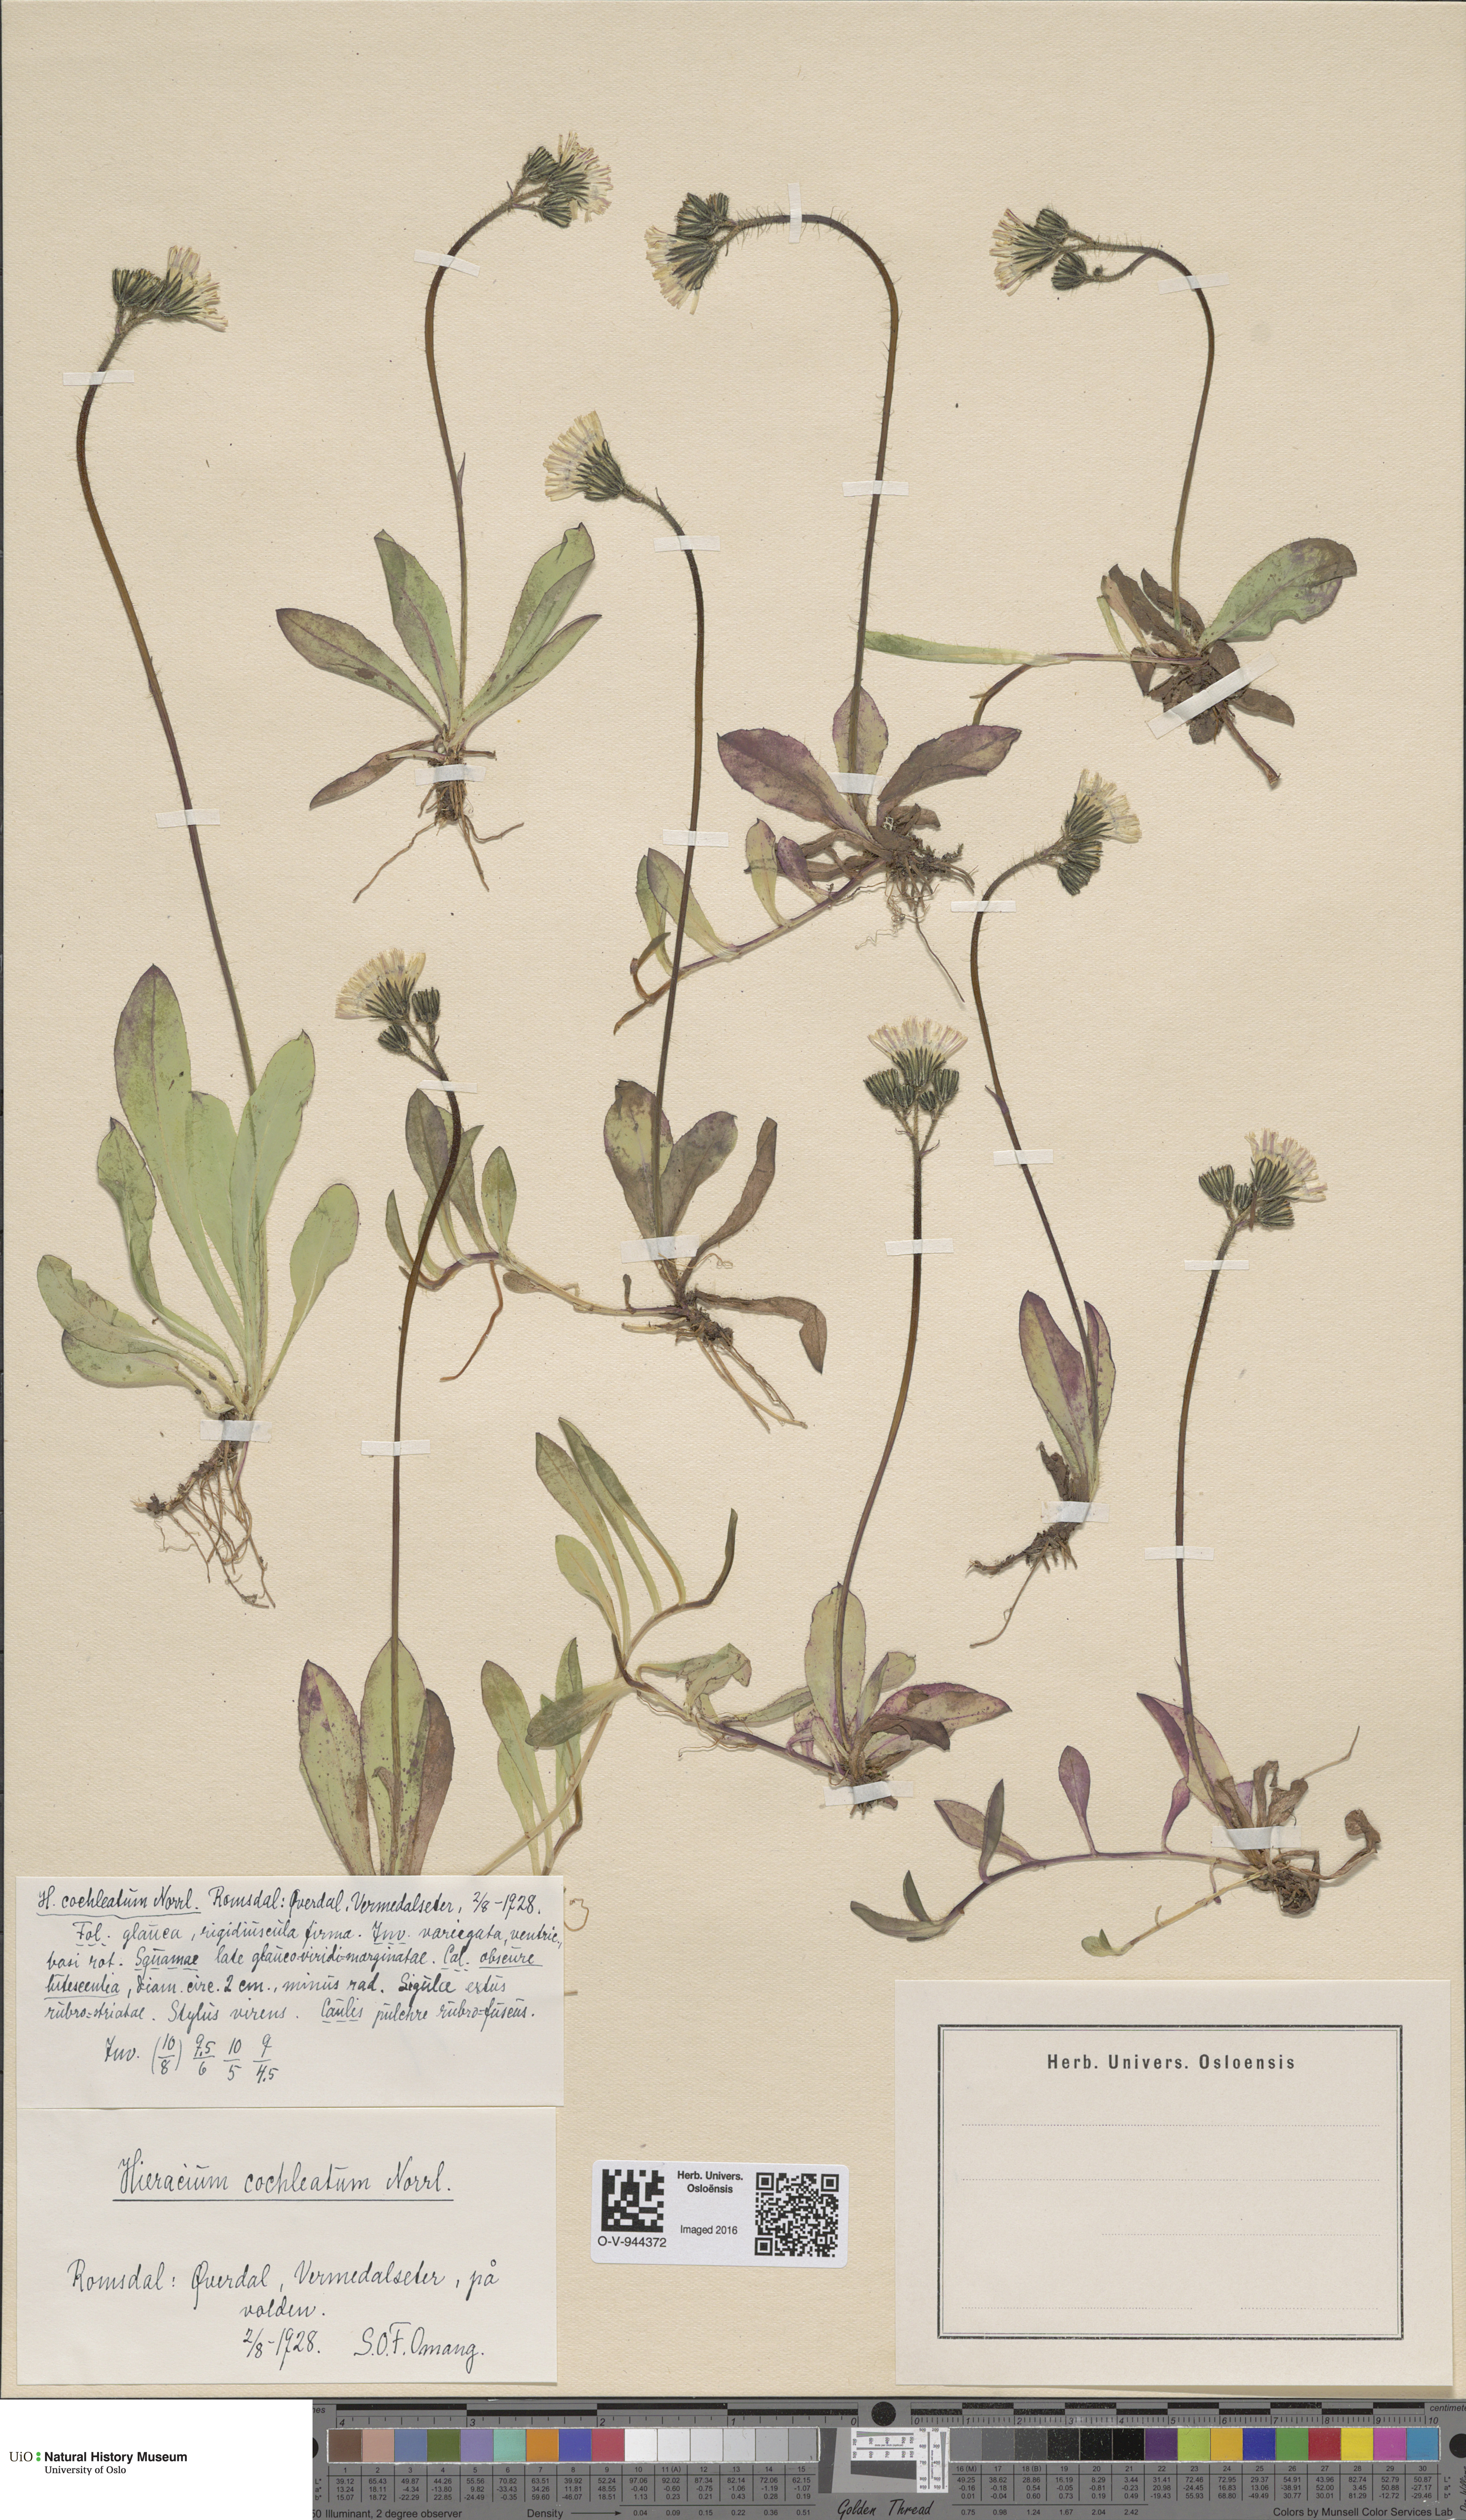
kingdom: Plantae
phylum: Tracheophyta
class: Magnoliopsida
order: Asterales
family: Asteraceae
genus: Pilosella
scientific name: Pilosella floribunda
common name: Glaucous hawkweed
